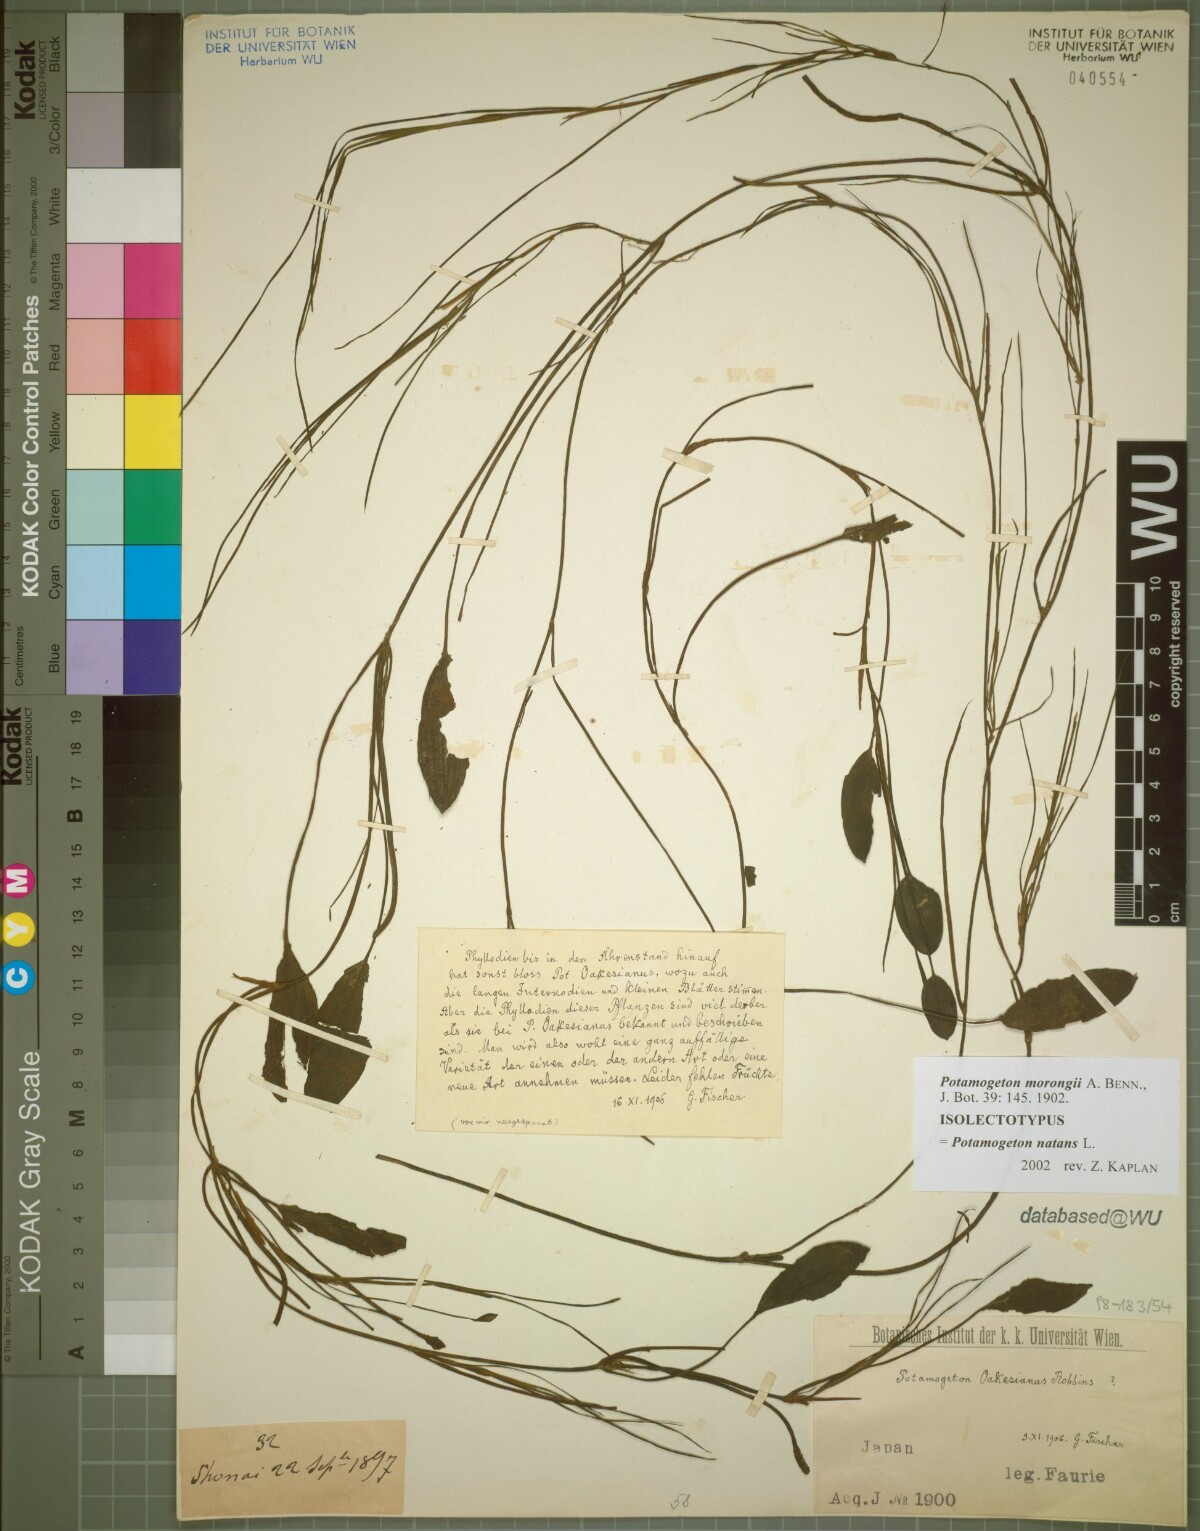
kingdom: Plantae
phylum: Tracheophyta
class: Liliopsida
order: Alismatales
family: Potamogetonaceae
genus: Potamogeton
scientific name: Potamogeton natans
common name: Broad-leaved pondweed
